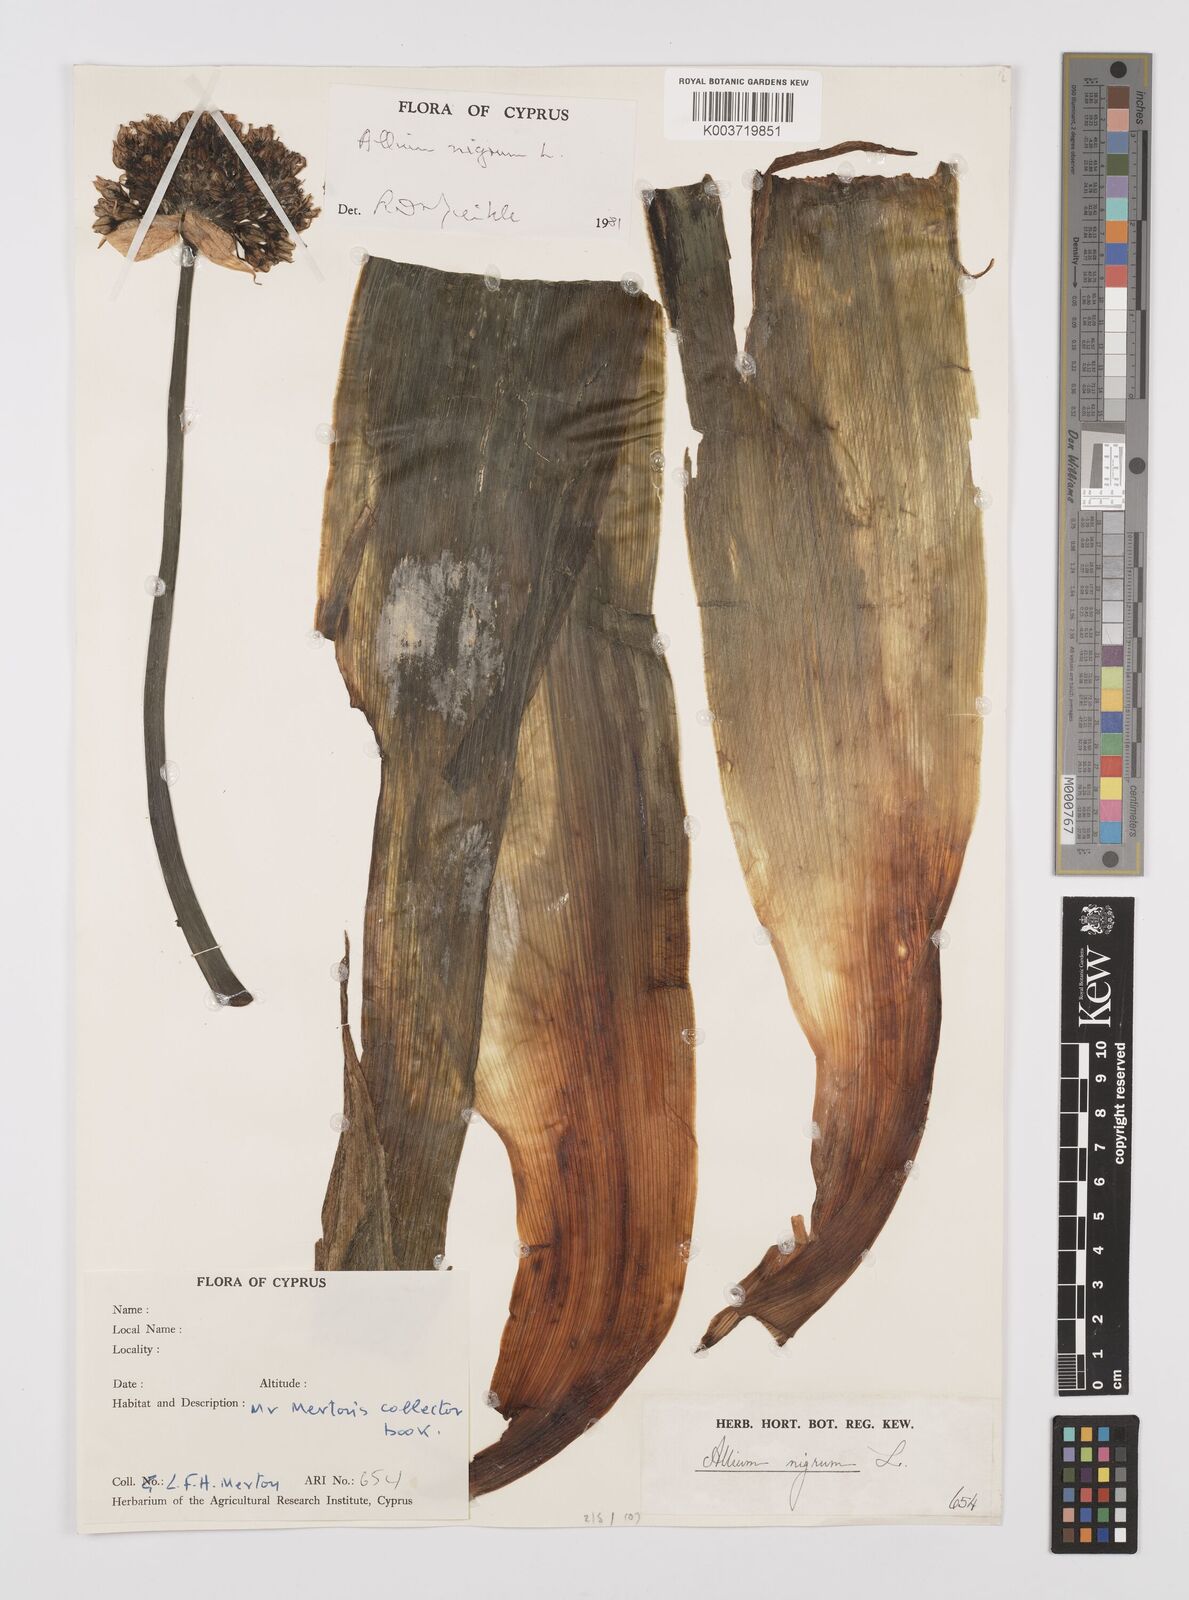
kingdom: Plantae
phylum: Tracheophyta
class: Liliopsida
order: Asparagales
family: Amaryllidaceae
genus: Allium
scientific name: Allium nigrum
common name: Black garlic
